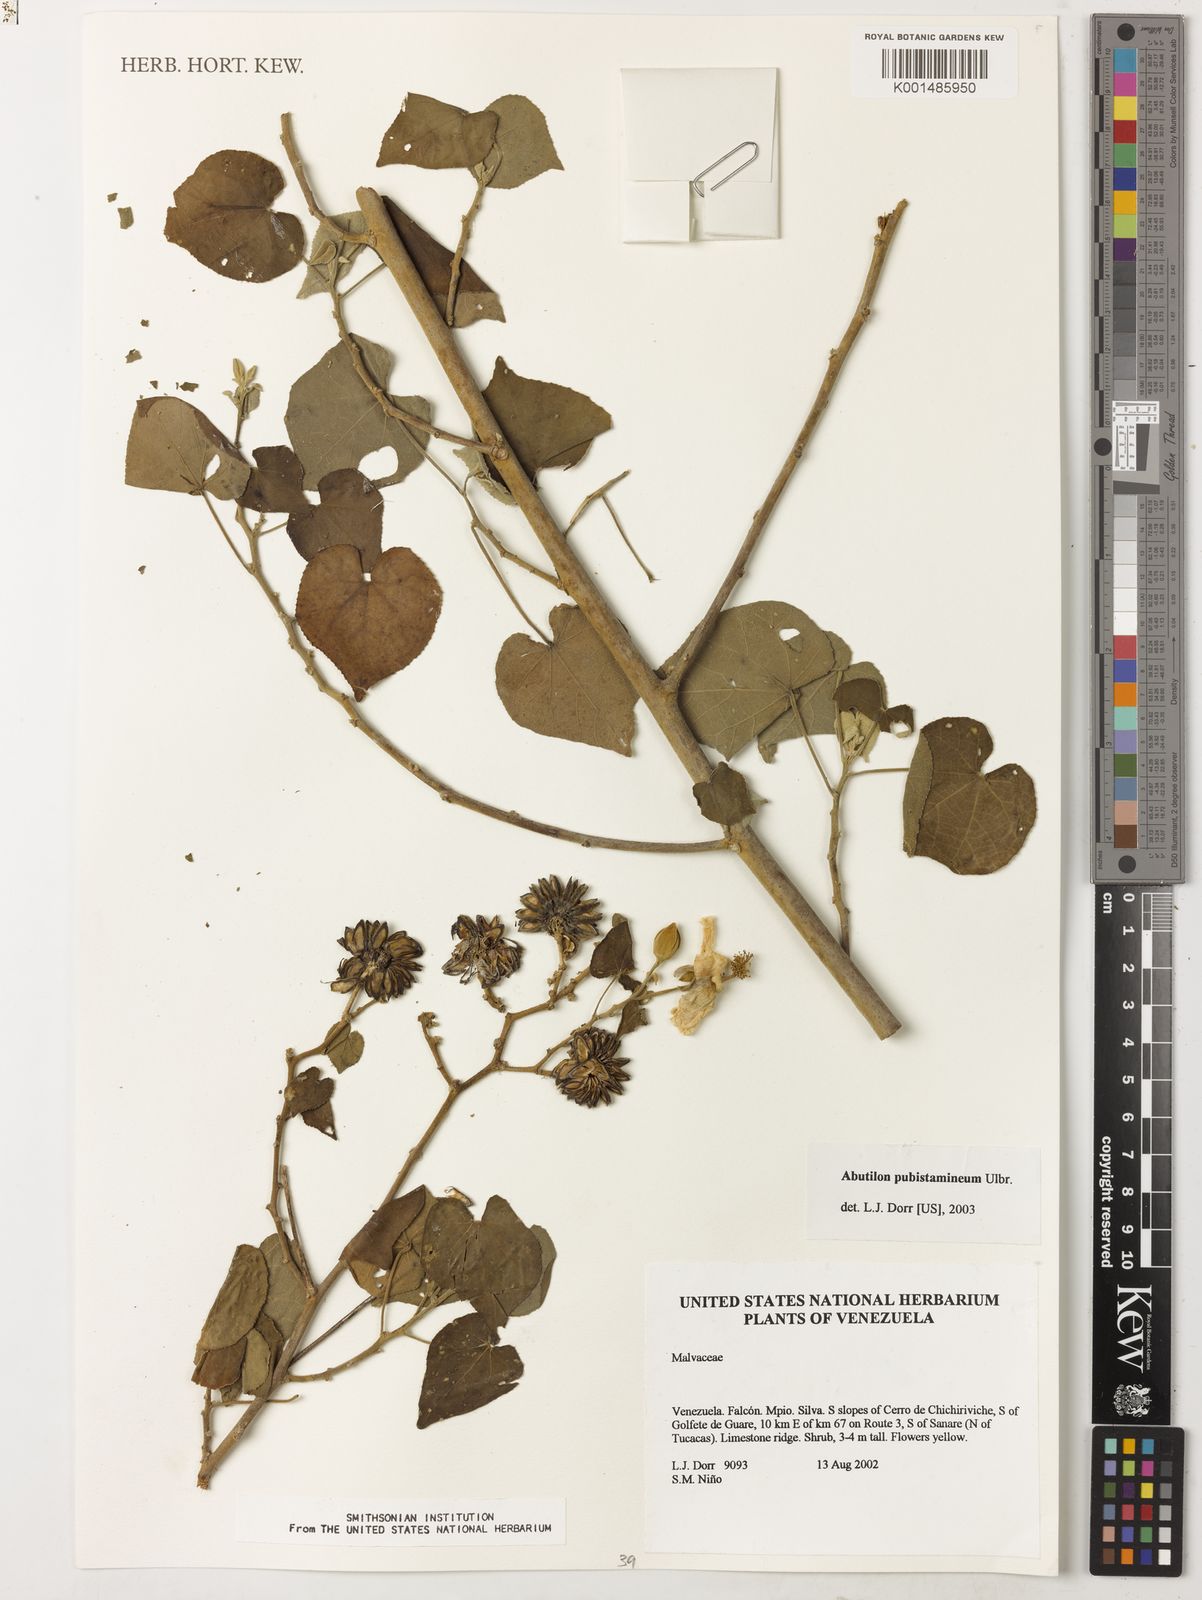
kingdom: Plantae
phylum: Tracheophyta
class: Magnoliopsida
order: Malvales
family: Malvaceae
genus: Abutilon
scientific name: Abutilon pubistamineum
